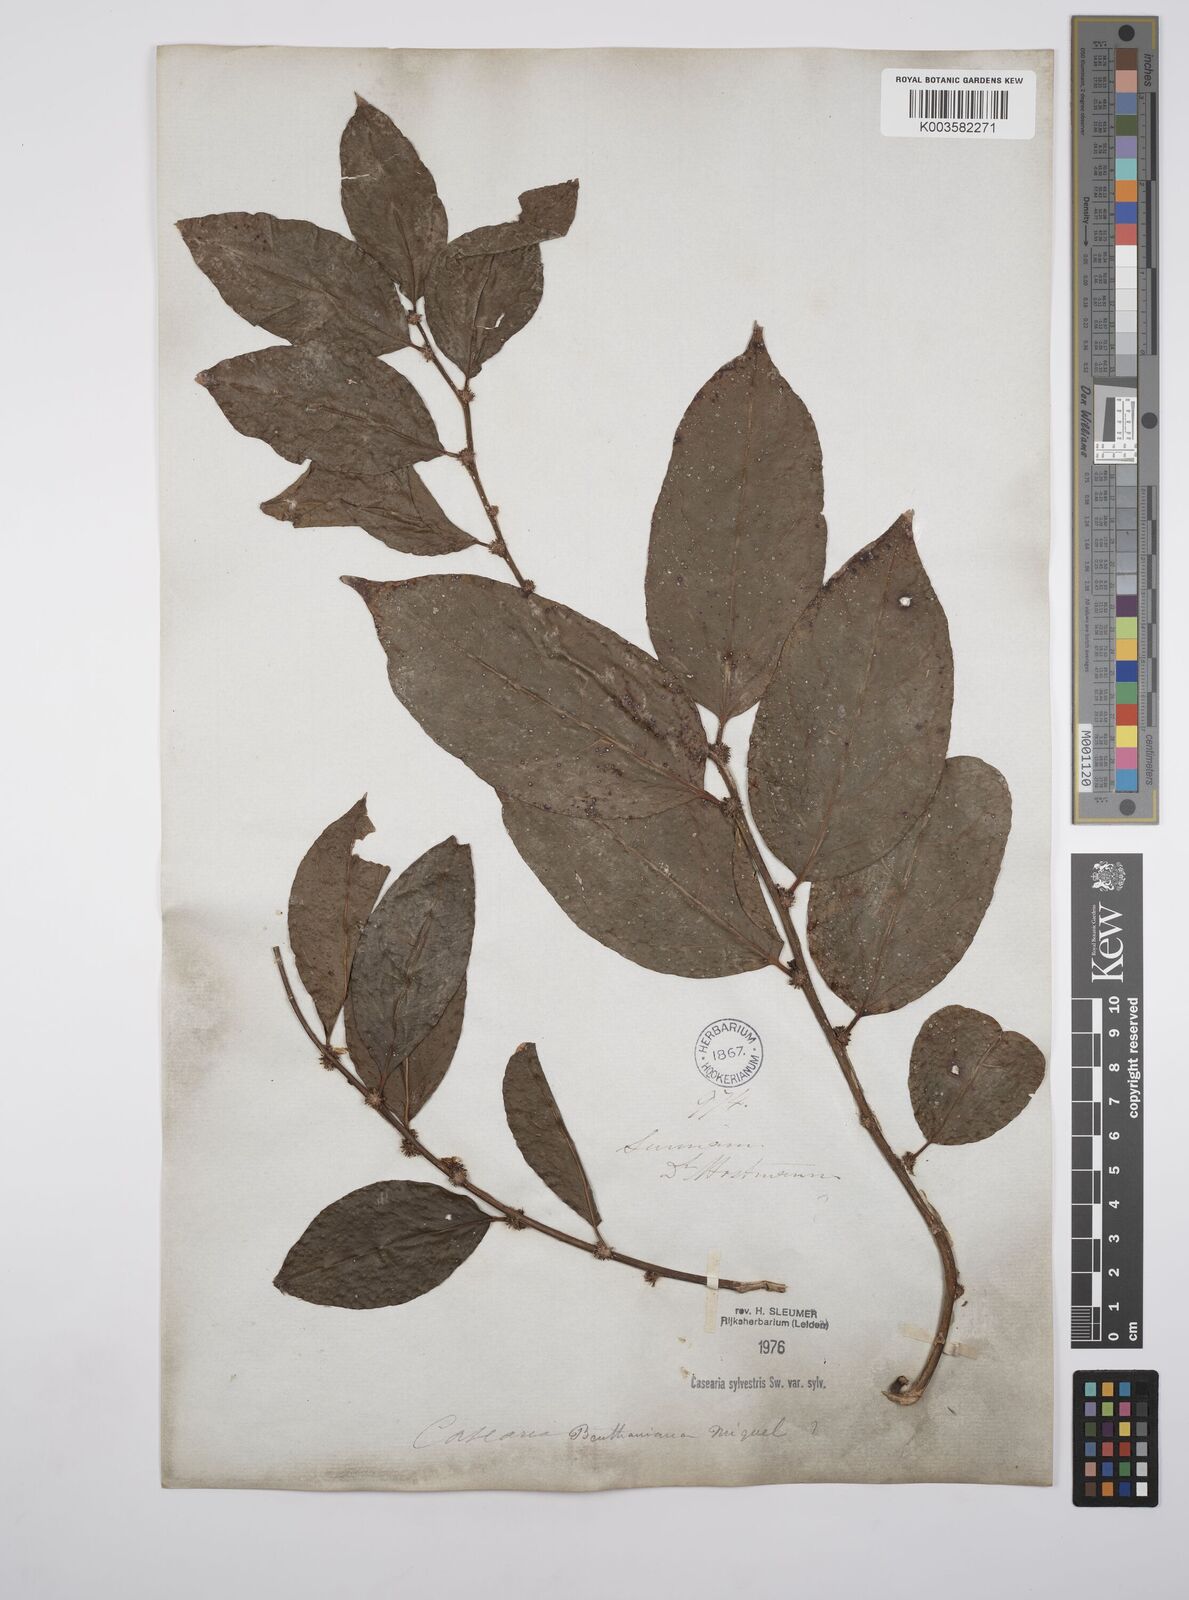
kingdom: Plantae
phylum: Tracheophyta
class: Magnoliopsida
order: Malpighiales
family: Salicaceae
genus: Casearia
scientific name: Casearia sylvestris
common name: Wild sage
